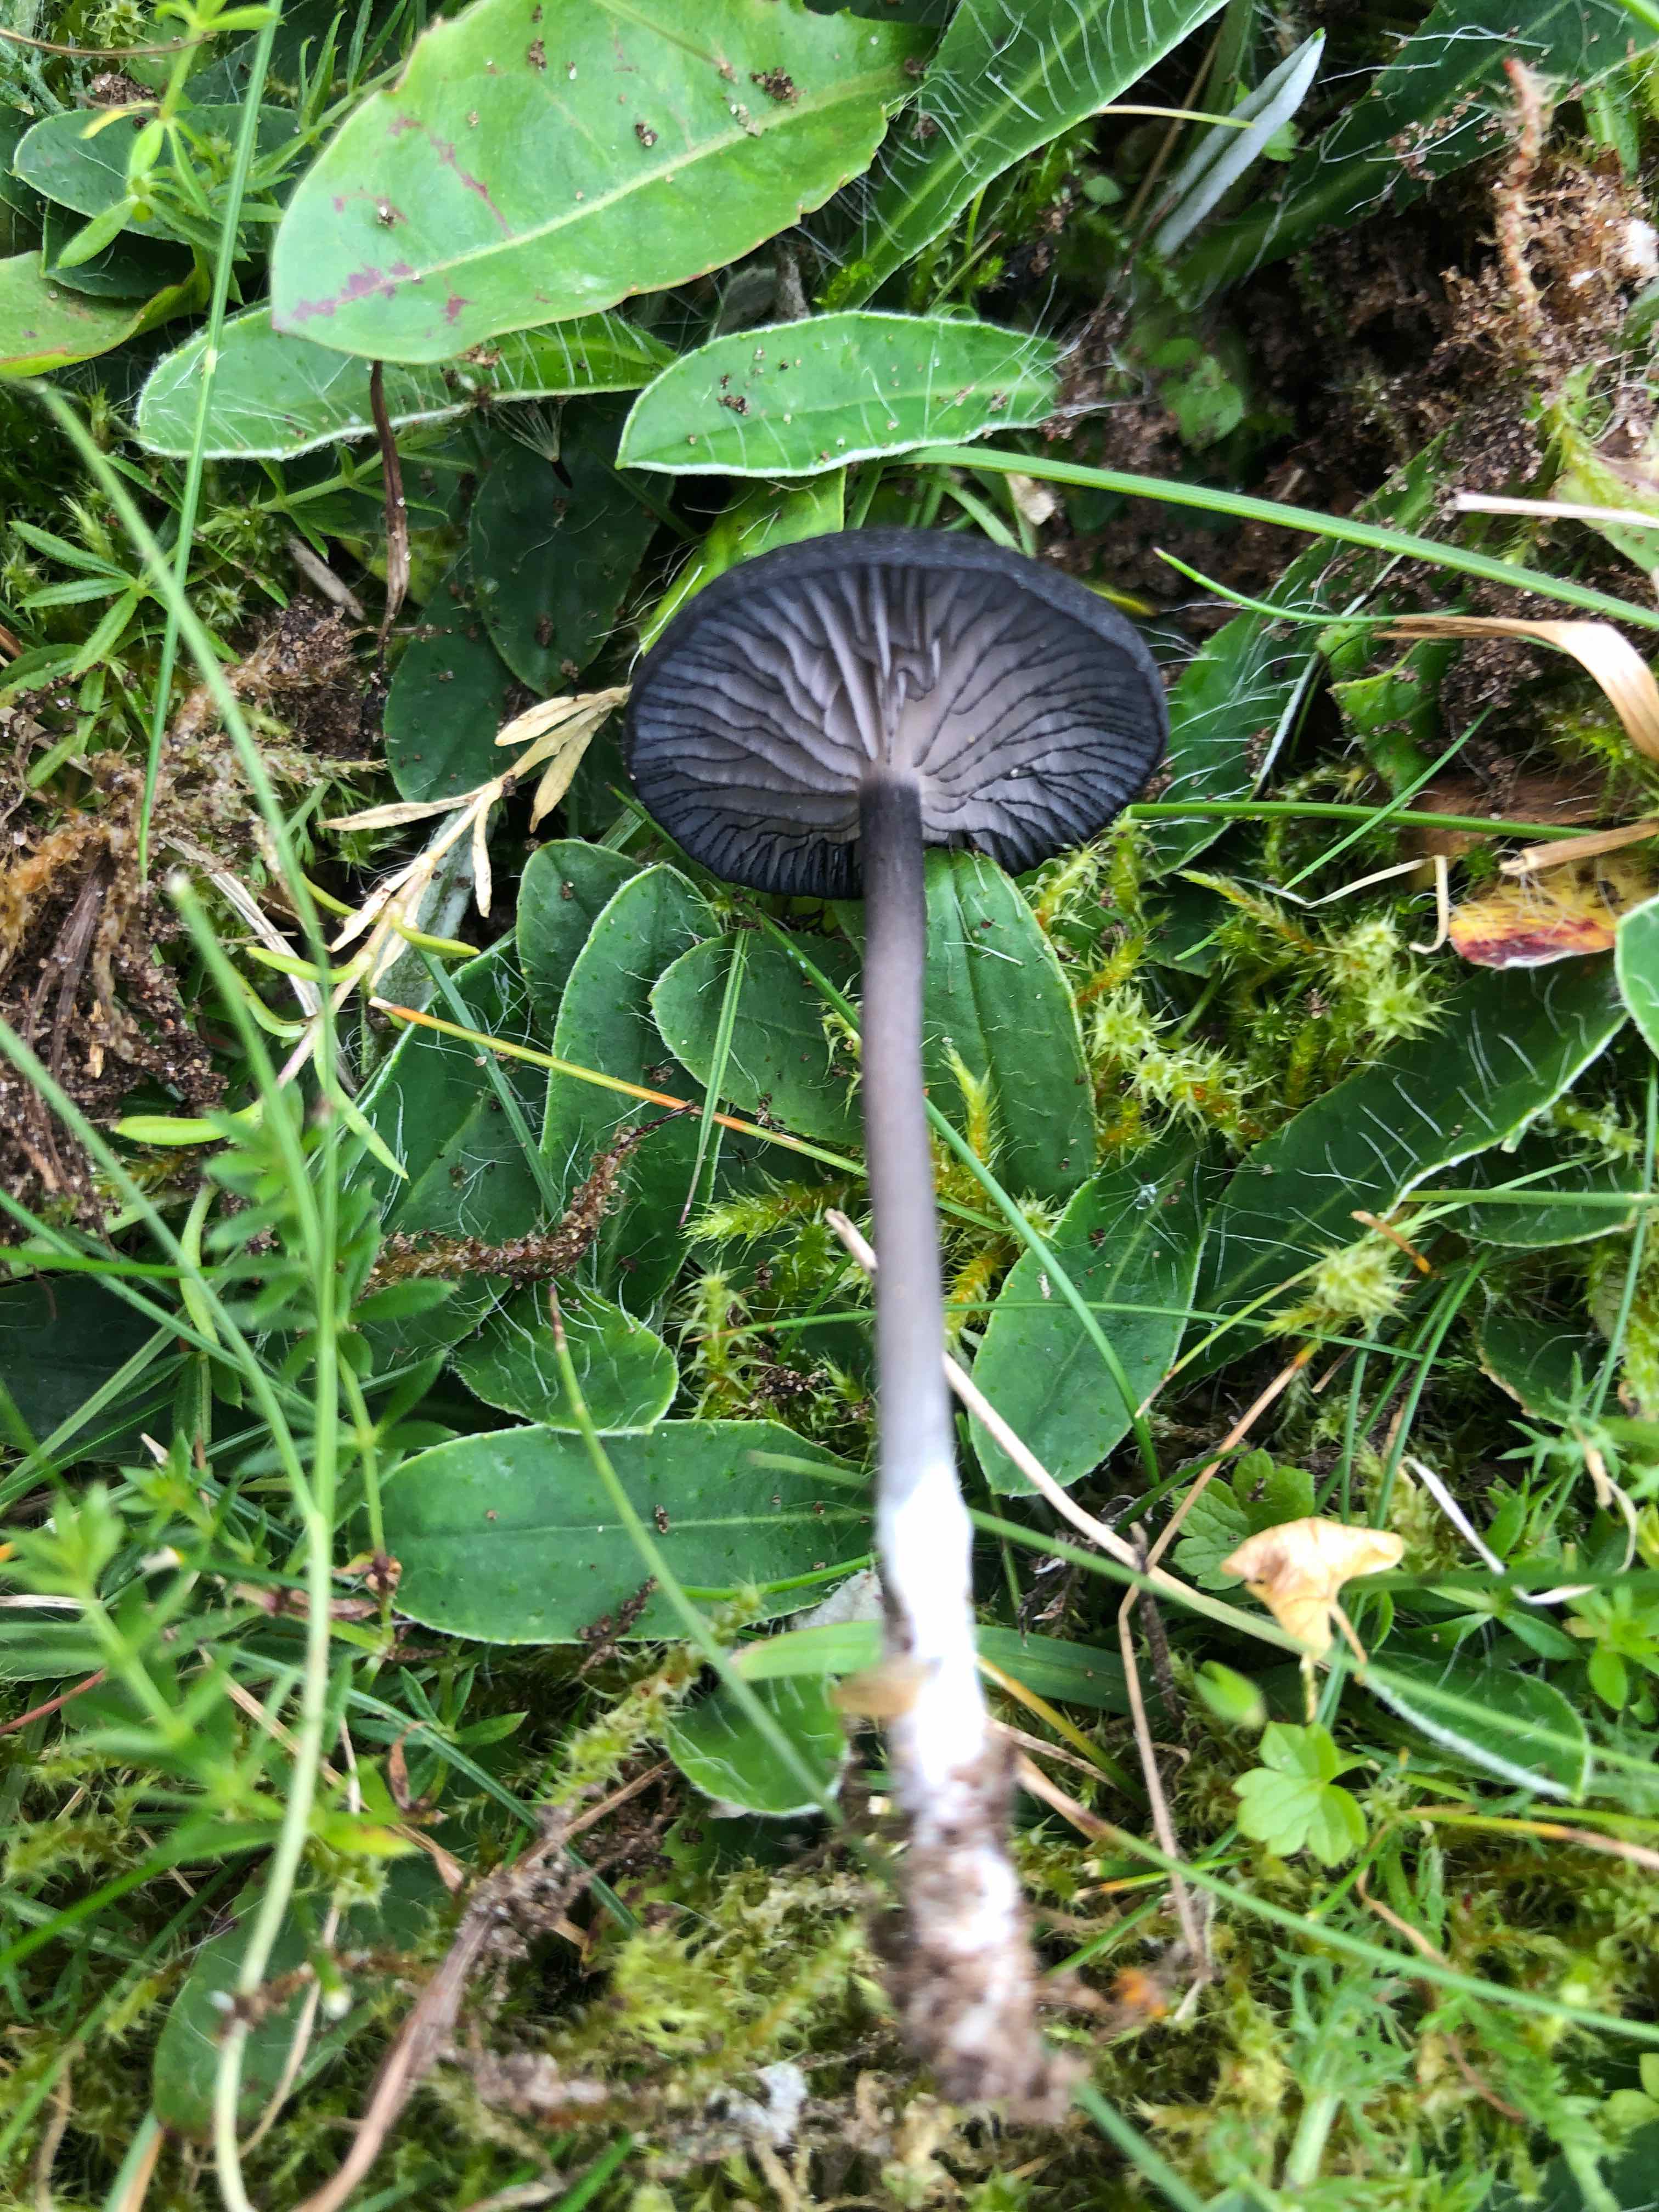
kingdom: Fungi
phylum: Basidiomycota
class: Agaricomycetes
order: Agaricales
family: Entolomataceae
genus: Entoloma
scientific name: Entoloma
